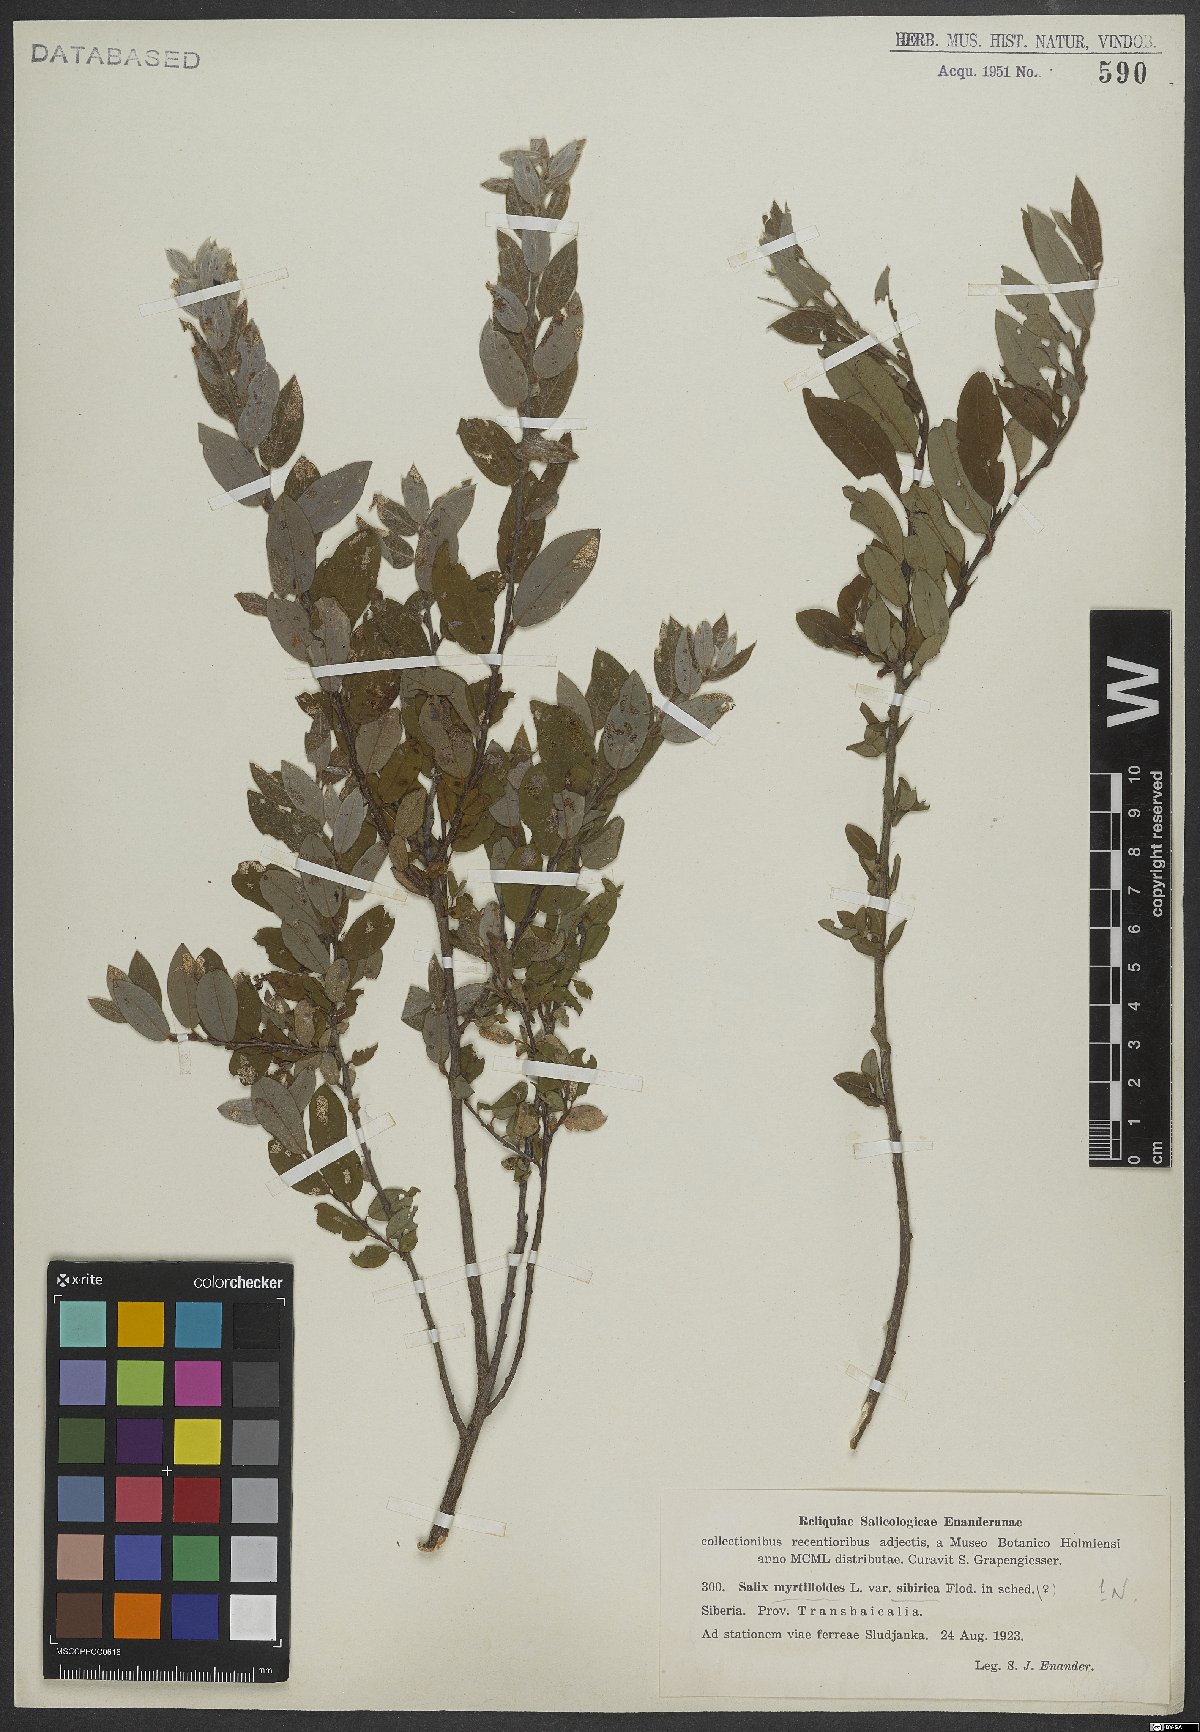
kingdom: Plantae
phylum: Tracheophyta
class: Magnoliopsida
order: Malpighiales
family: Salicaceae
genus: Salix
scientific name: Salix myrtilloides
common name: Myrtle-leaved willow
